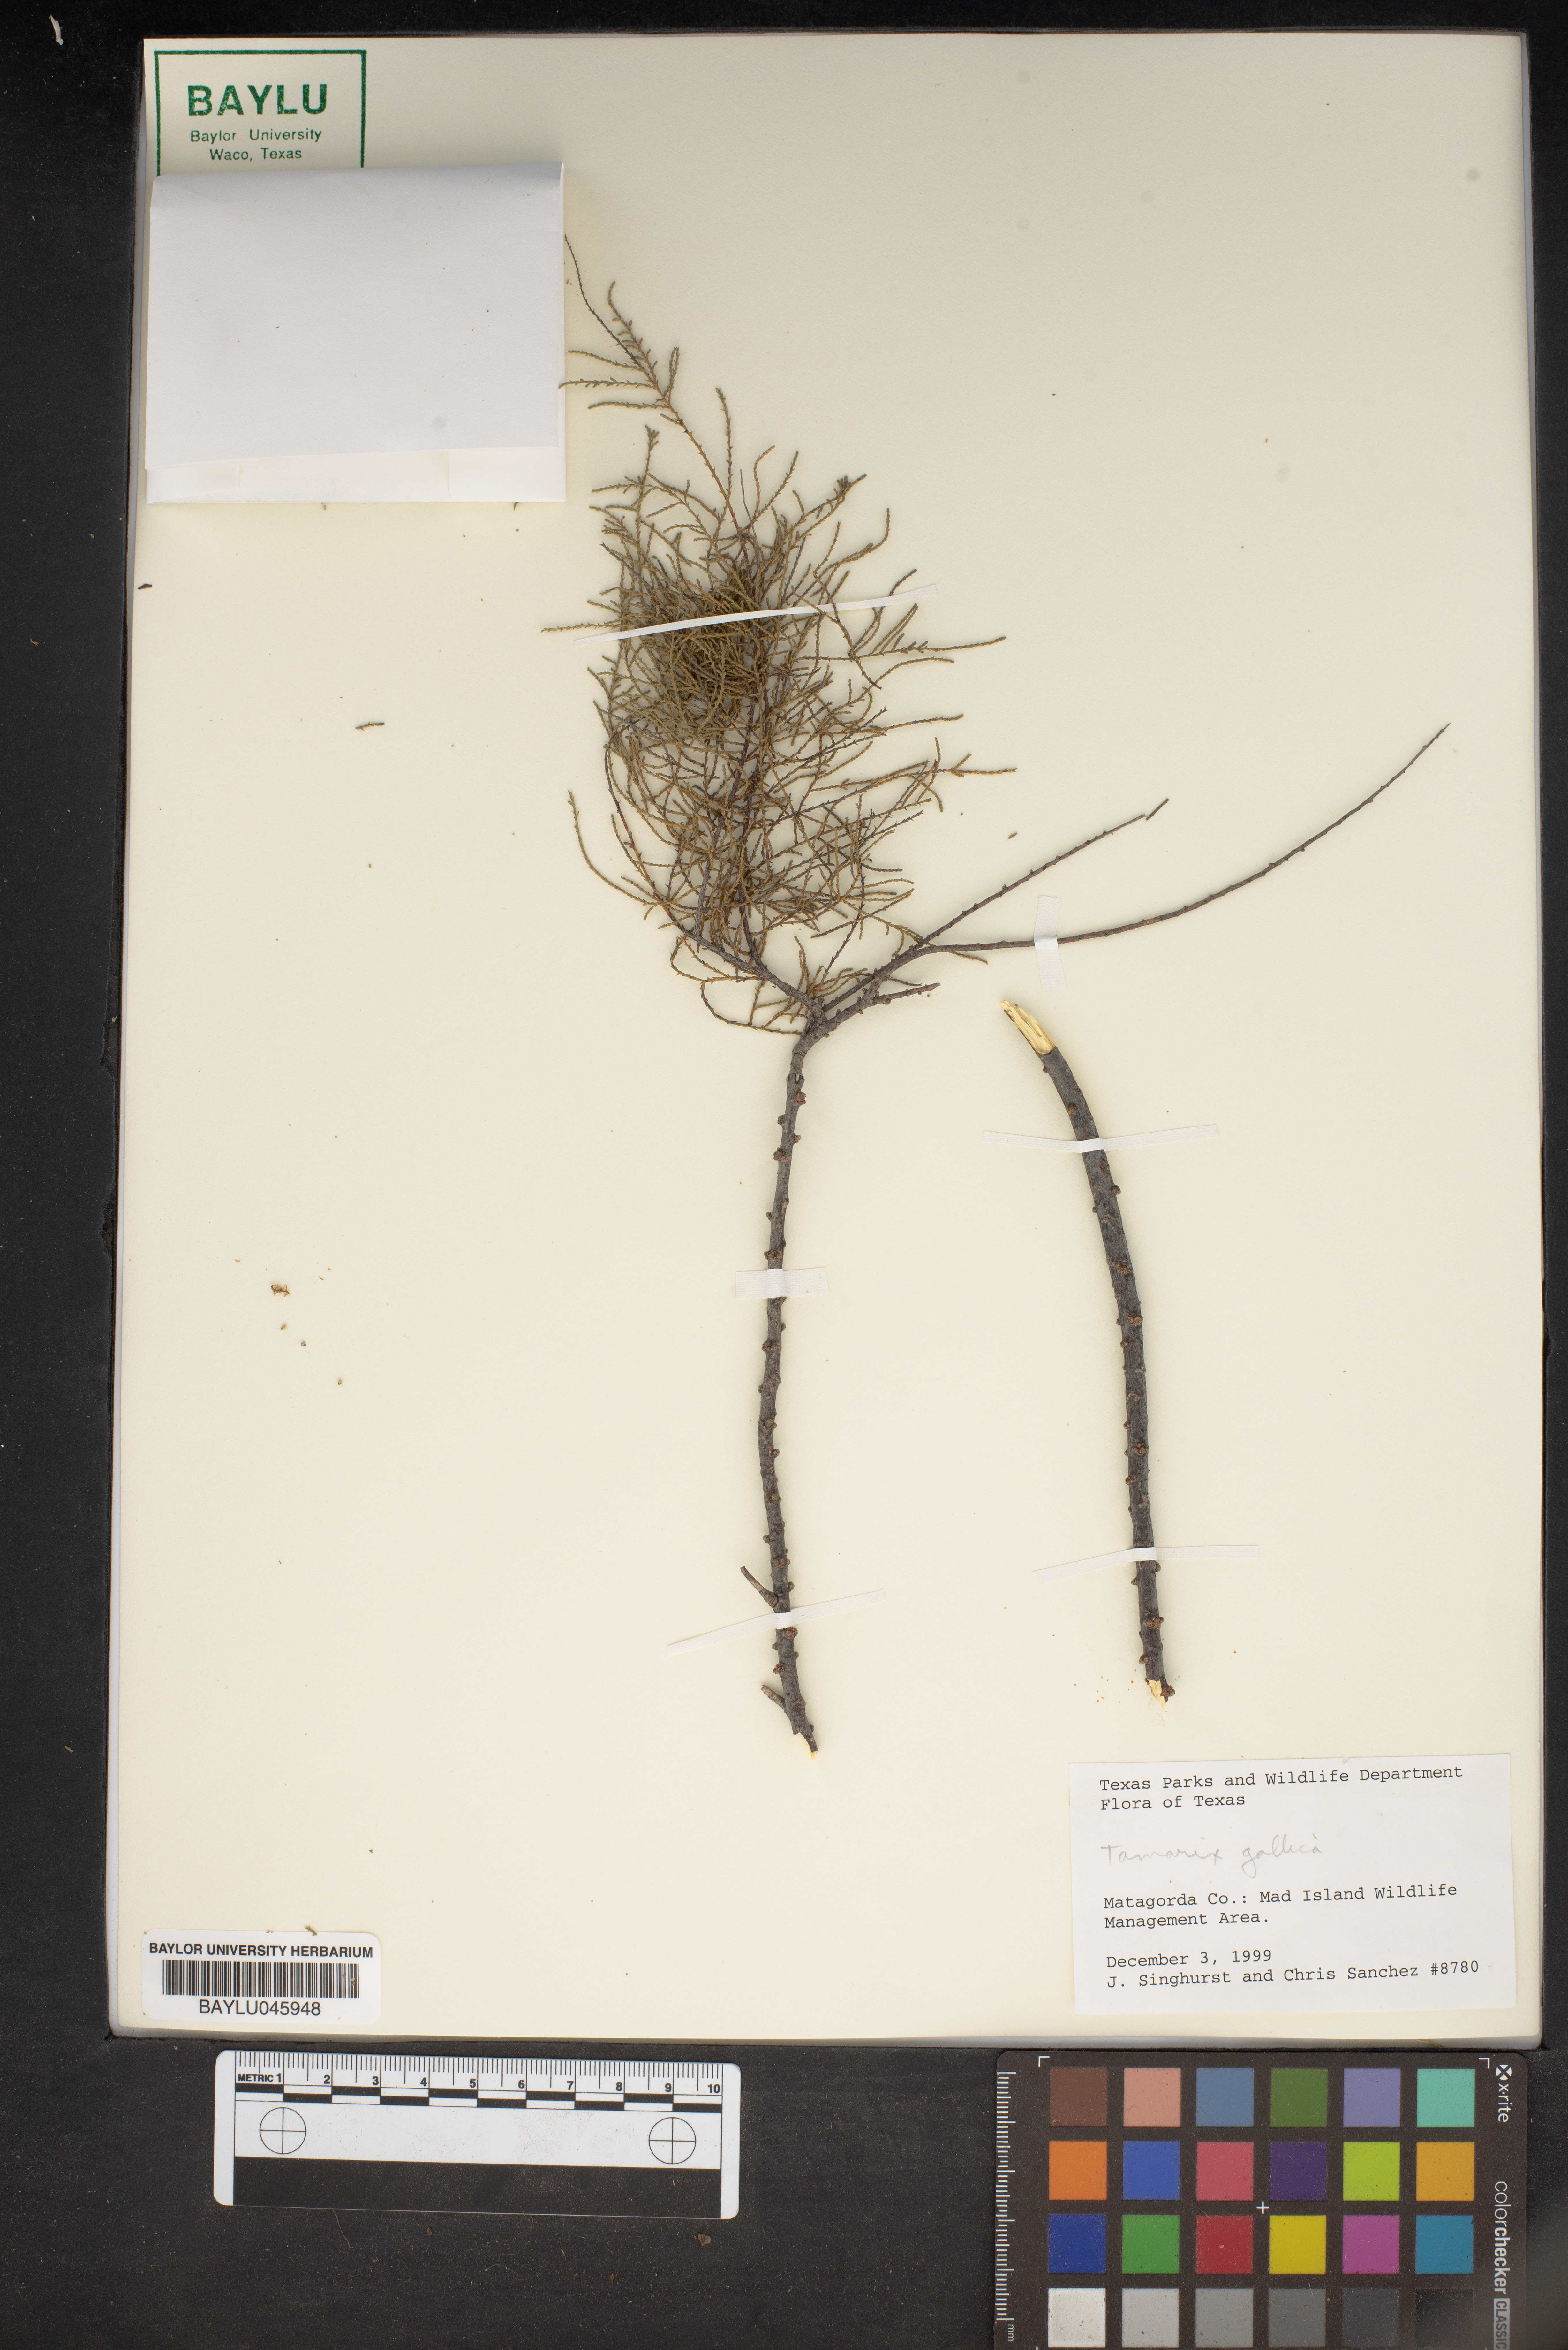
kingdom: Plantae
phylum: Tracheophyta
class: Magnoliopsida
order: Caryophyllales
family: Tamaricaceae
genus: Tamarix
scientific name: Tamarix gallica
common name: Tamarisk
